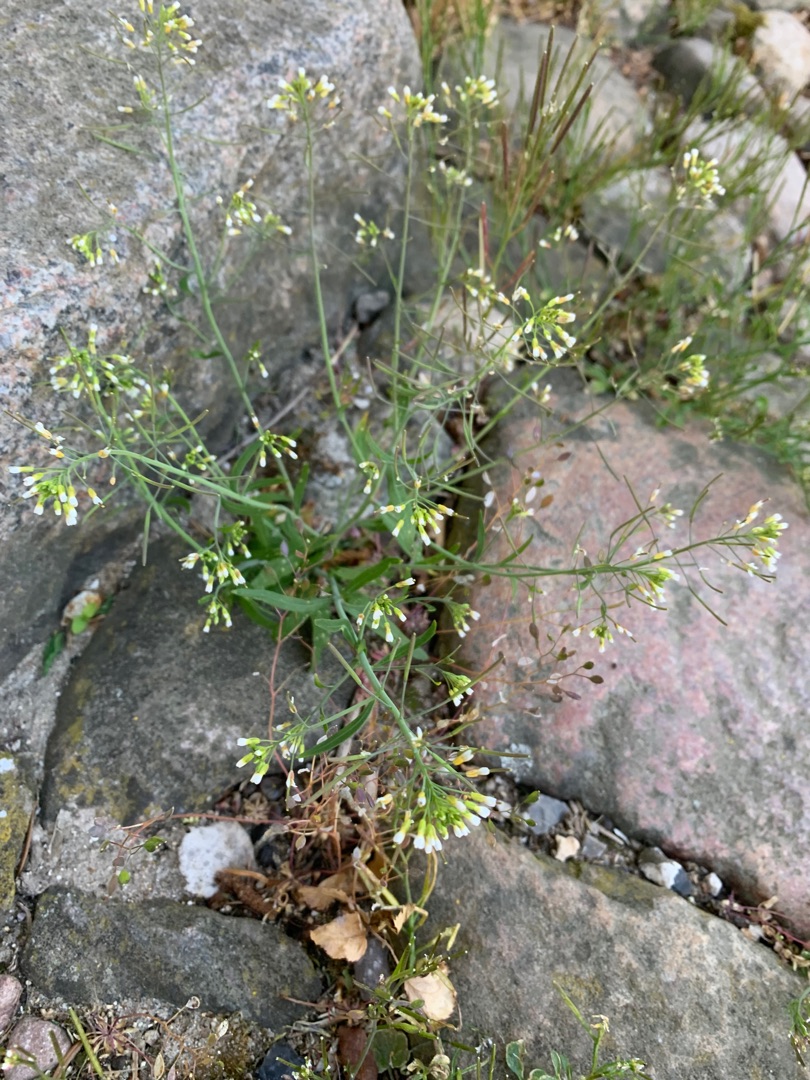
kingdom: Plantae
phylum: Tracheophyta
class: Magnoliopsida
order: Brassicales
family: Brassicaceae
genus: Arabidopsis
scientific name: Arabidopsis thaliana
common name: Almindelig gåsemad
